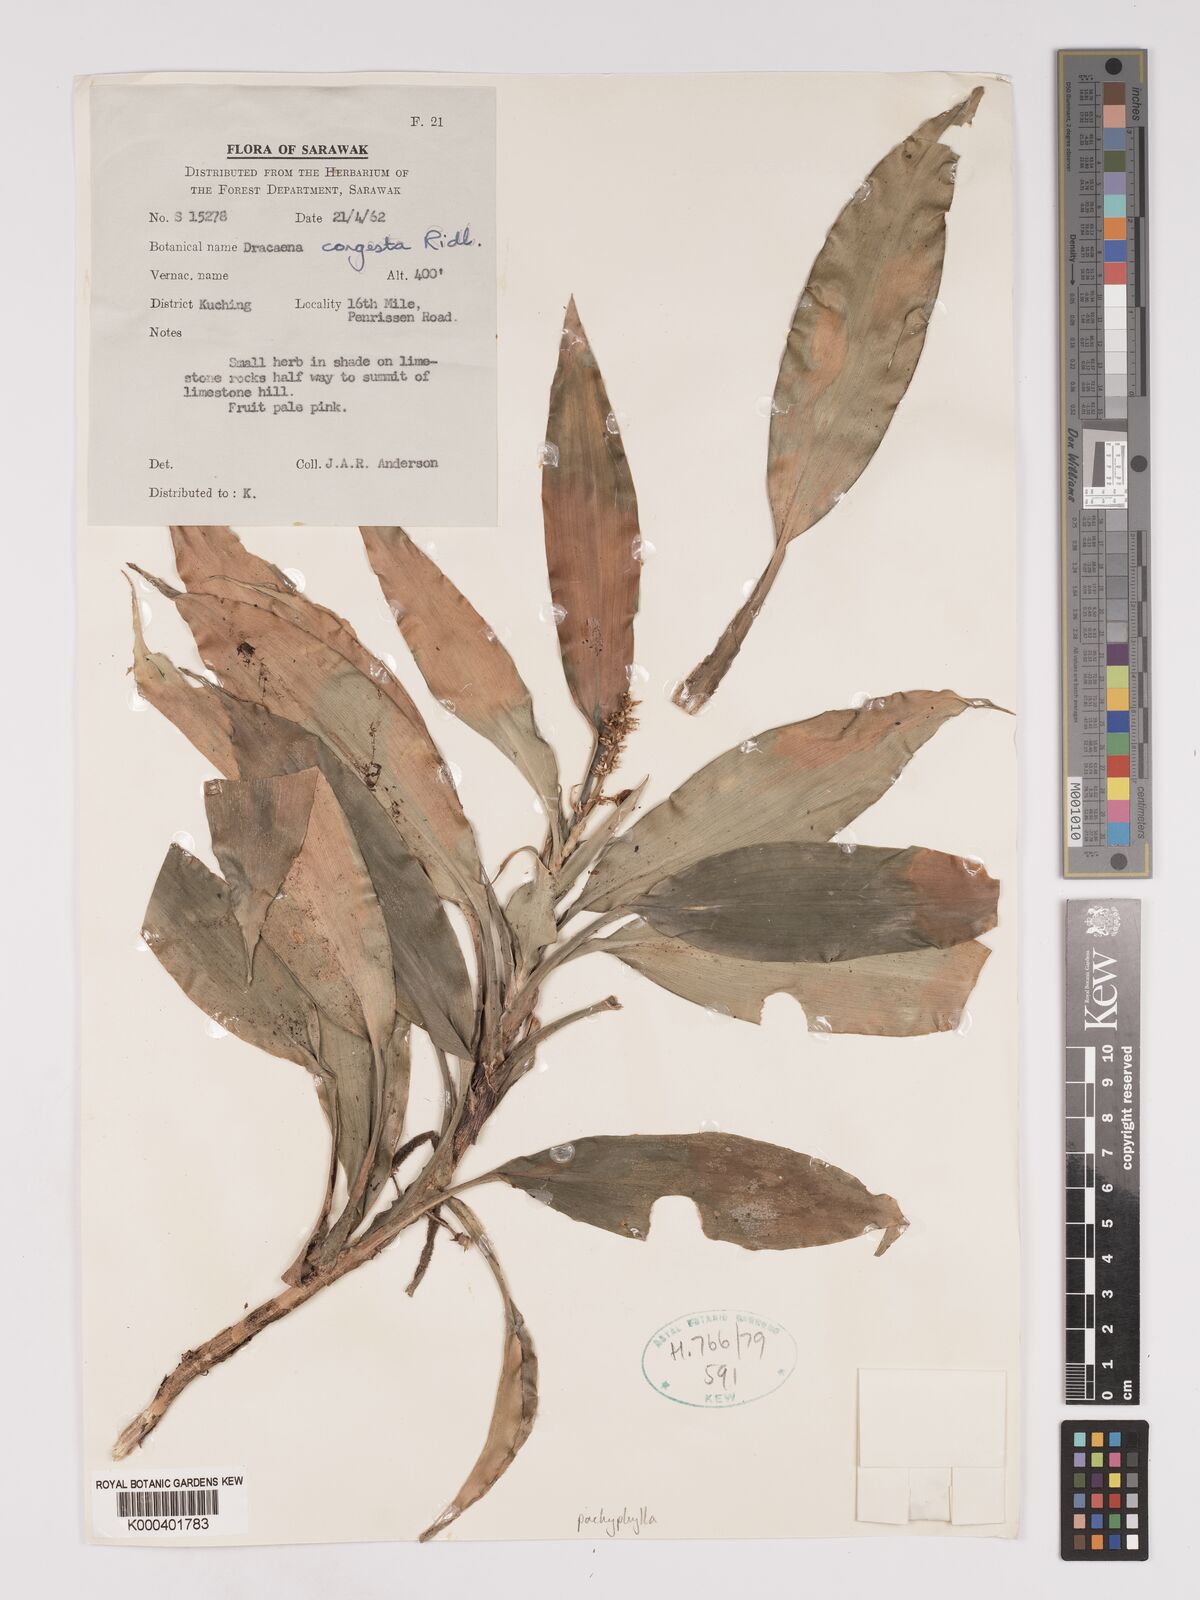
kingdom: Plantae
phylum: Tracheophyta
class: Liliopsida
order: Asparagales
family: Asparagaceae
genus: Dracaena
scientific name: Dracaena pachyphylla
